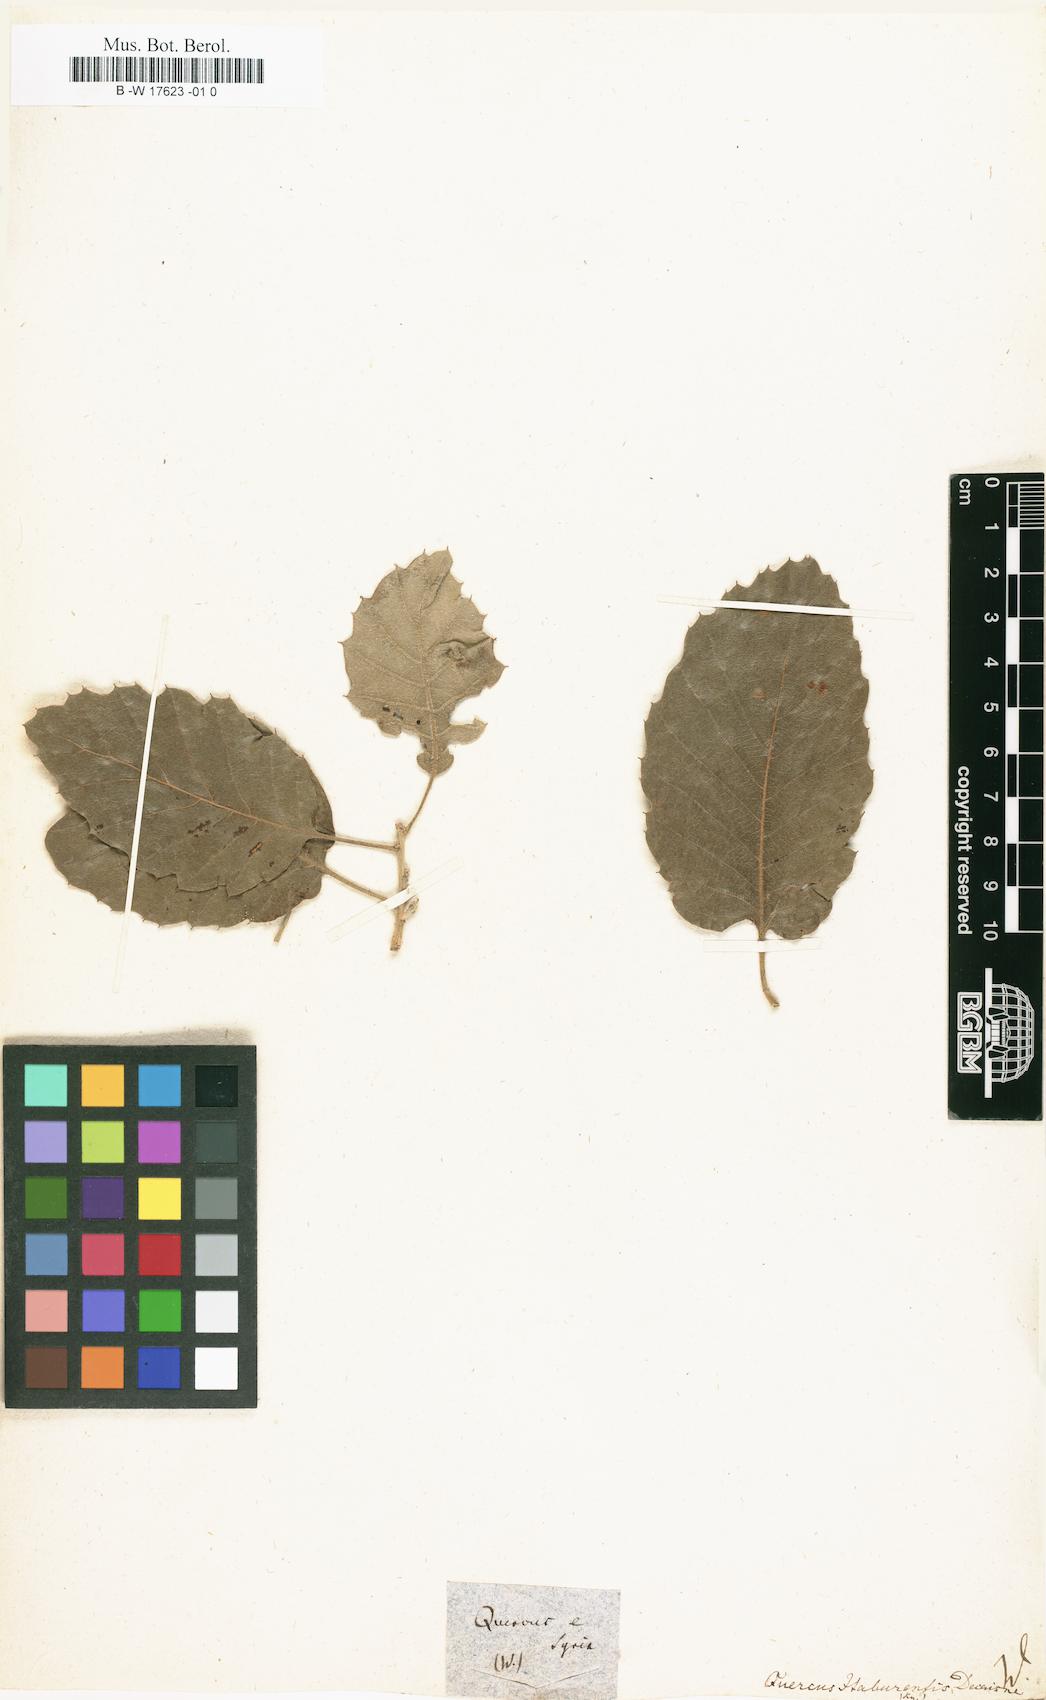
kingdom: Plantae
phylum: Tracheophyta
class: Magnoliopsida
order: Fagales
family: Fagaceae
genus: Quercus
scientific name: Quercus
